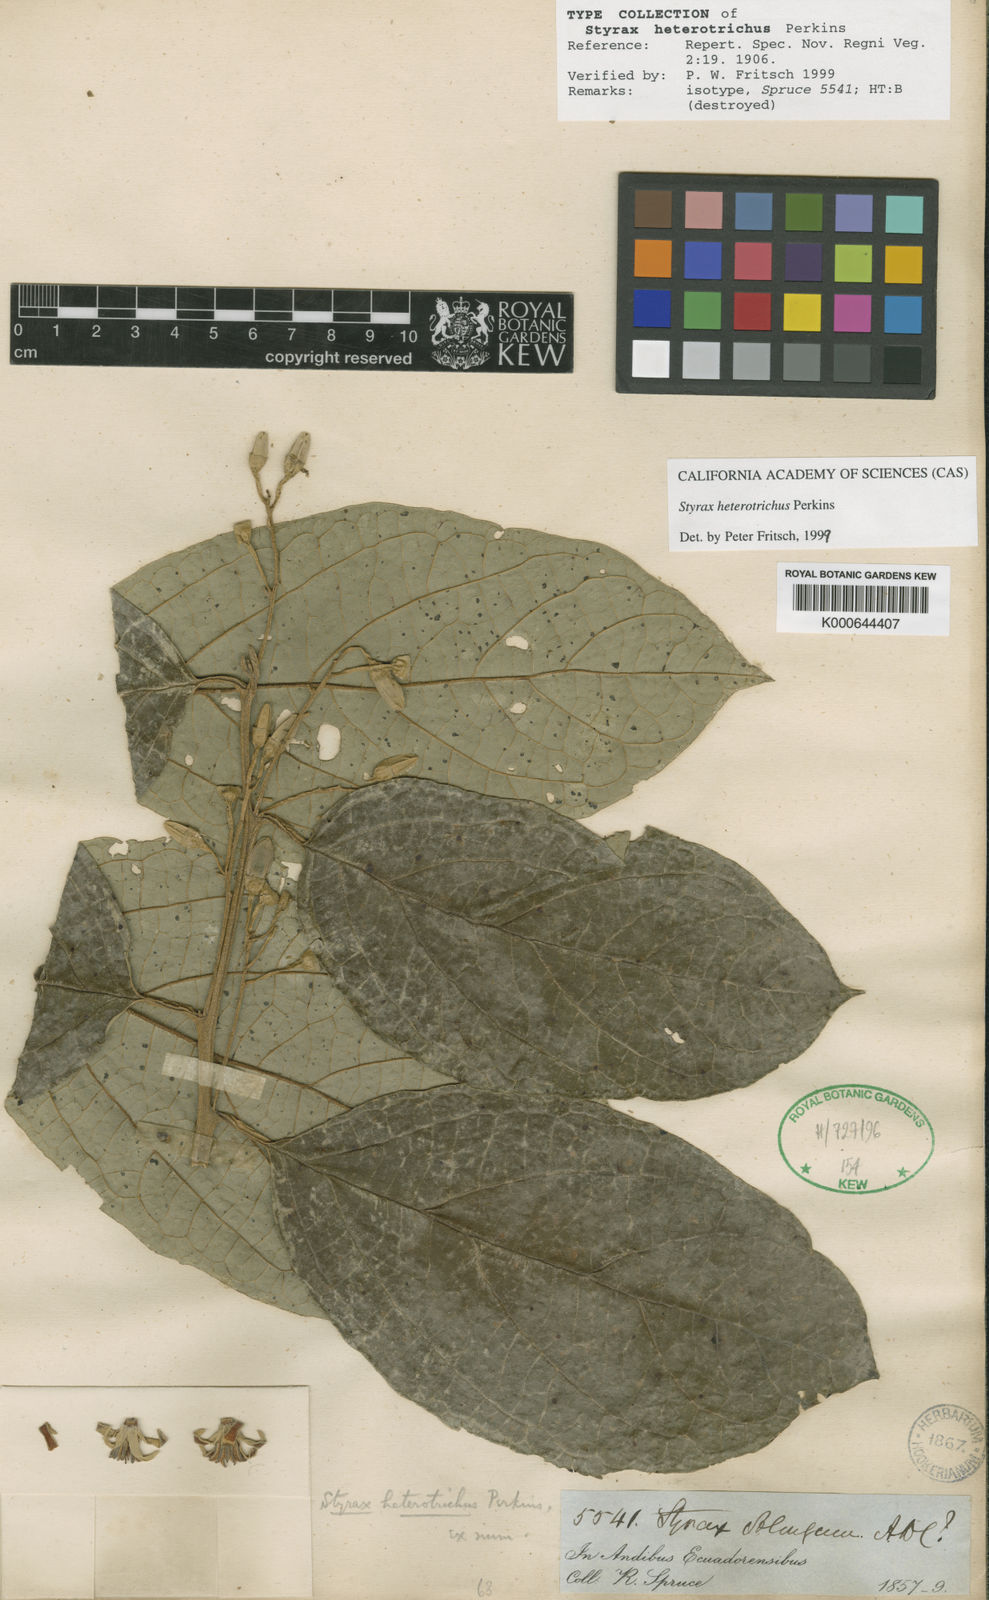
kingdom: Plantae
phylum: Tracheophyta
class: Magnoliopsida
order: Ericales
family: Styracaceae
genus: Styrax
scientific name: Styrax pavonii
